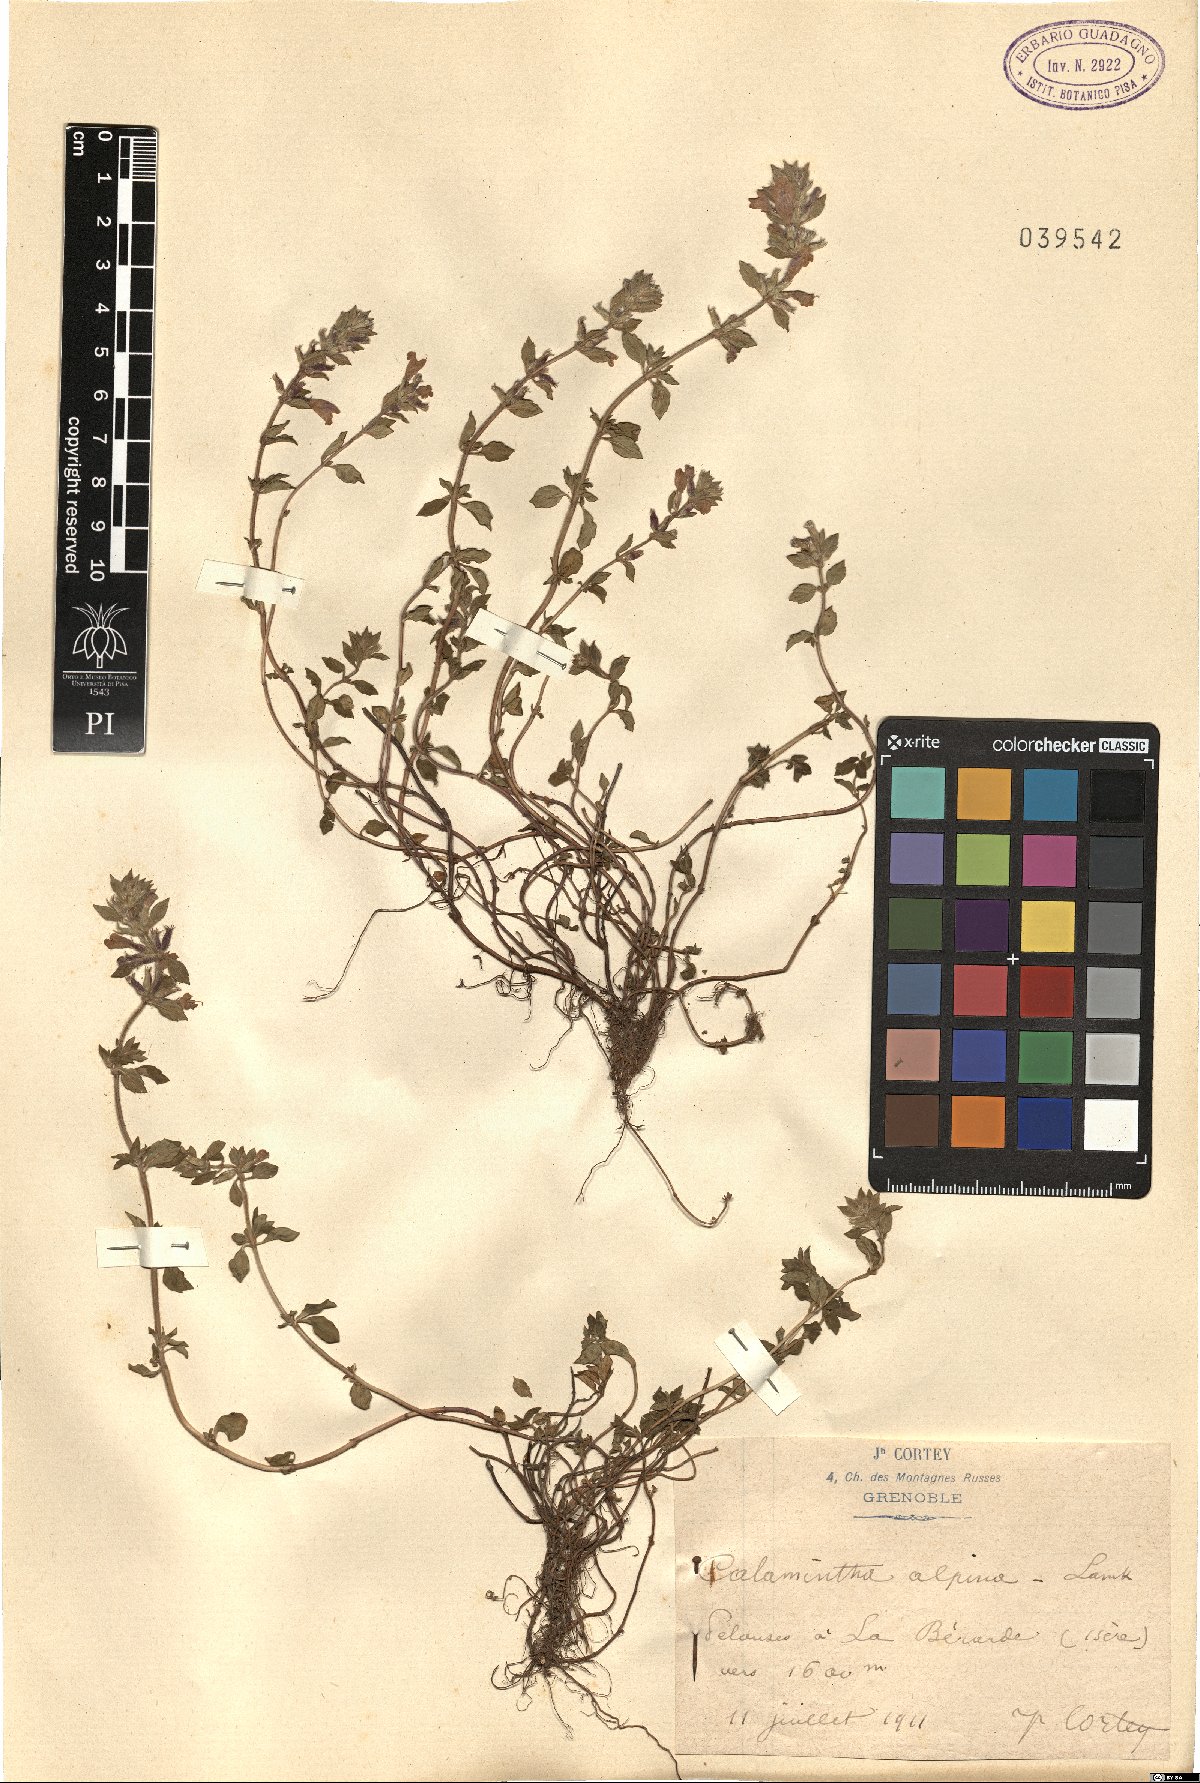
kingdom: Plantae
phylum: Tracheophyta
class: Magnoliopsida
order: Lamiales
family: Lamiaceae
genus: Clinopodium
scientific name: Clinopodium alpinum
